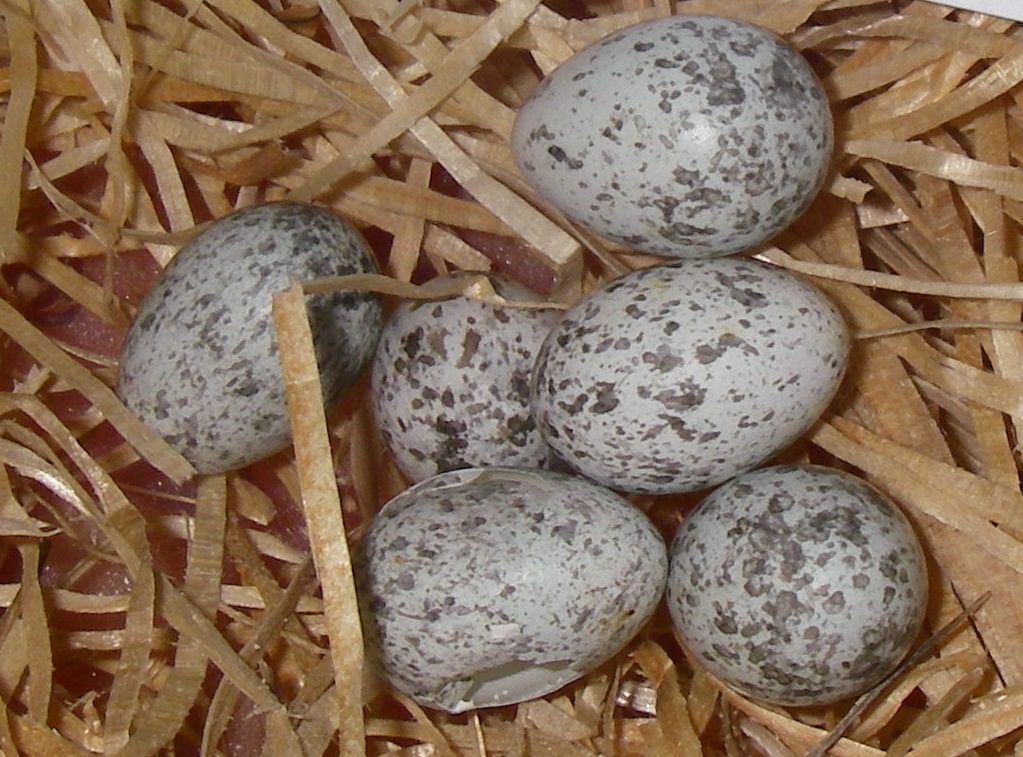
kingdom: Animalia
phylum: Chordata
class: Aves
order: Passeriformes
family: Passeridae
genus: Passer
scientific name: Passer domesticus
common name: House sparrow
